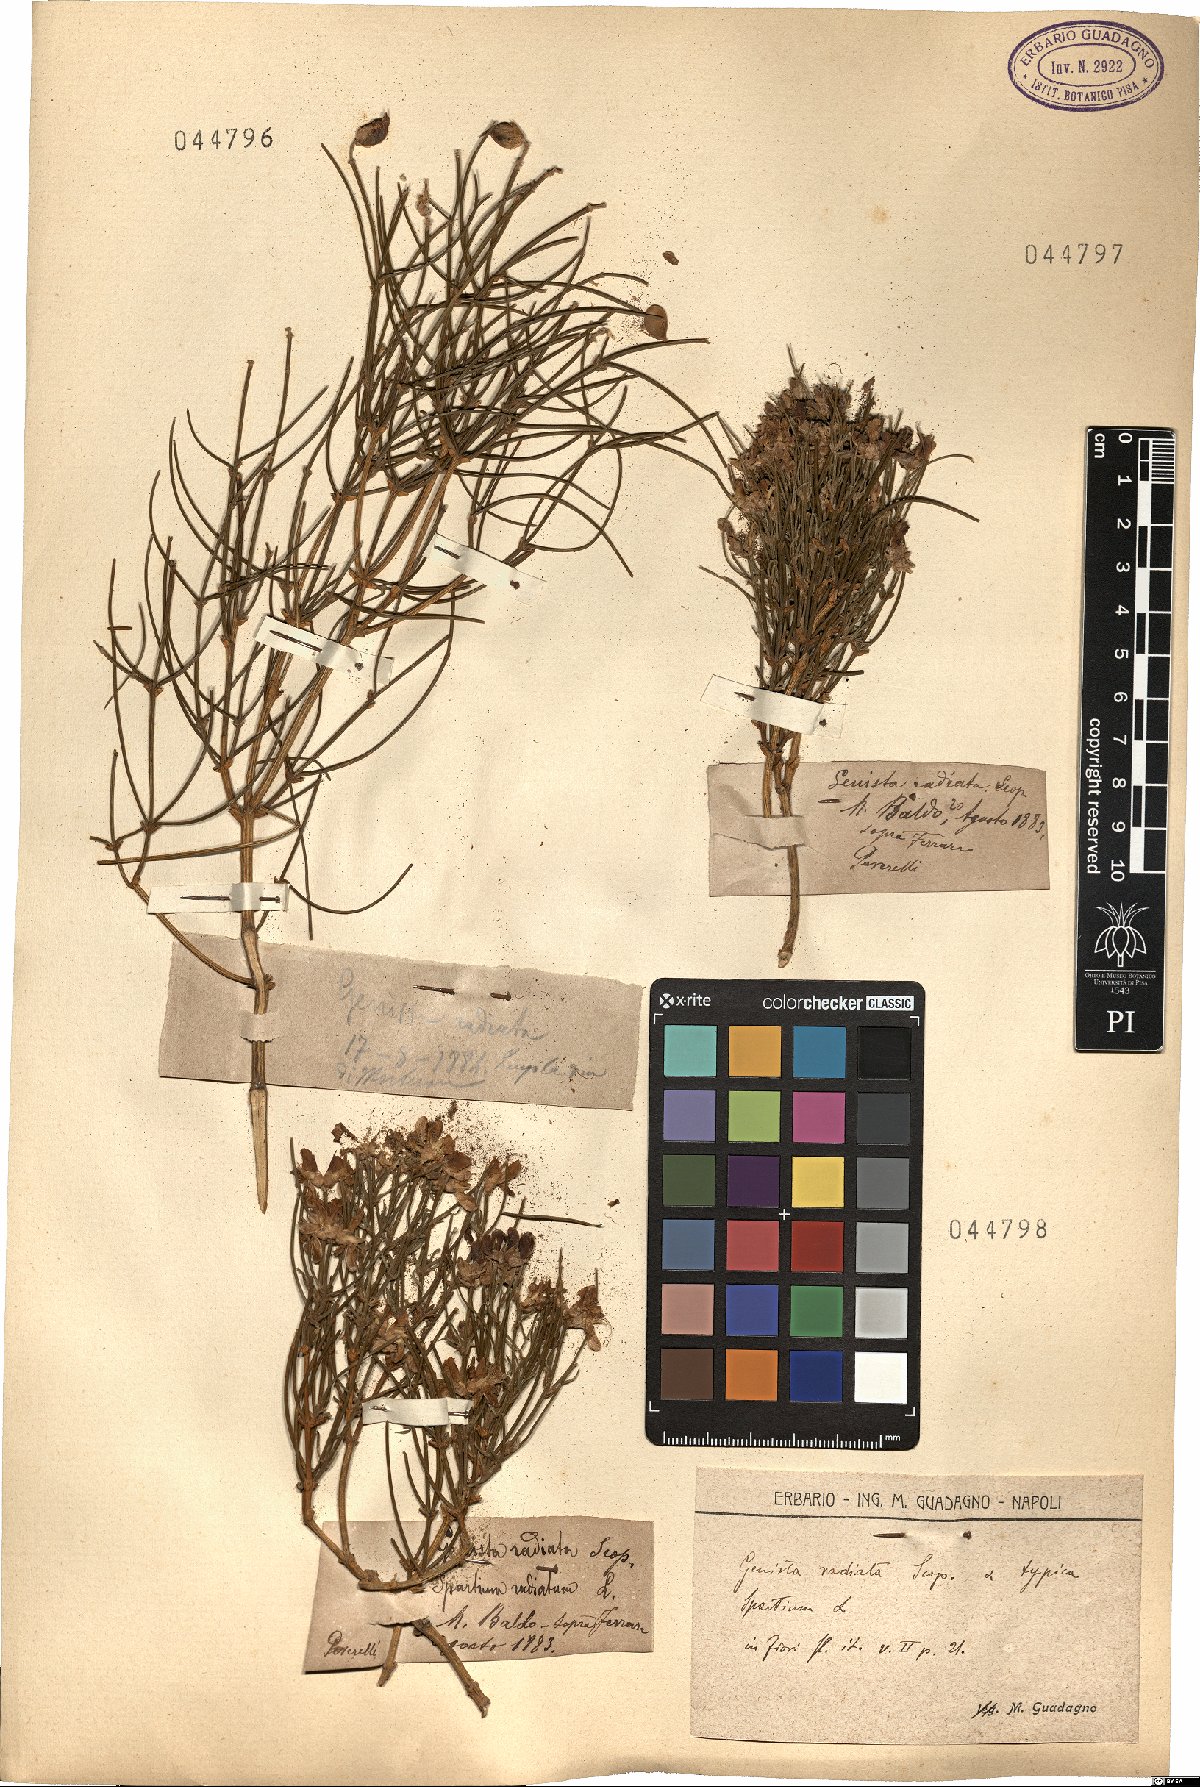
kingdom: Plantae
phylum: Tracheophyta
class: Magnoliopsida
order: Fabales
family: Fabaceae
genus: Genista
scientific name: Genista radiata
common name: Southern greenweed
